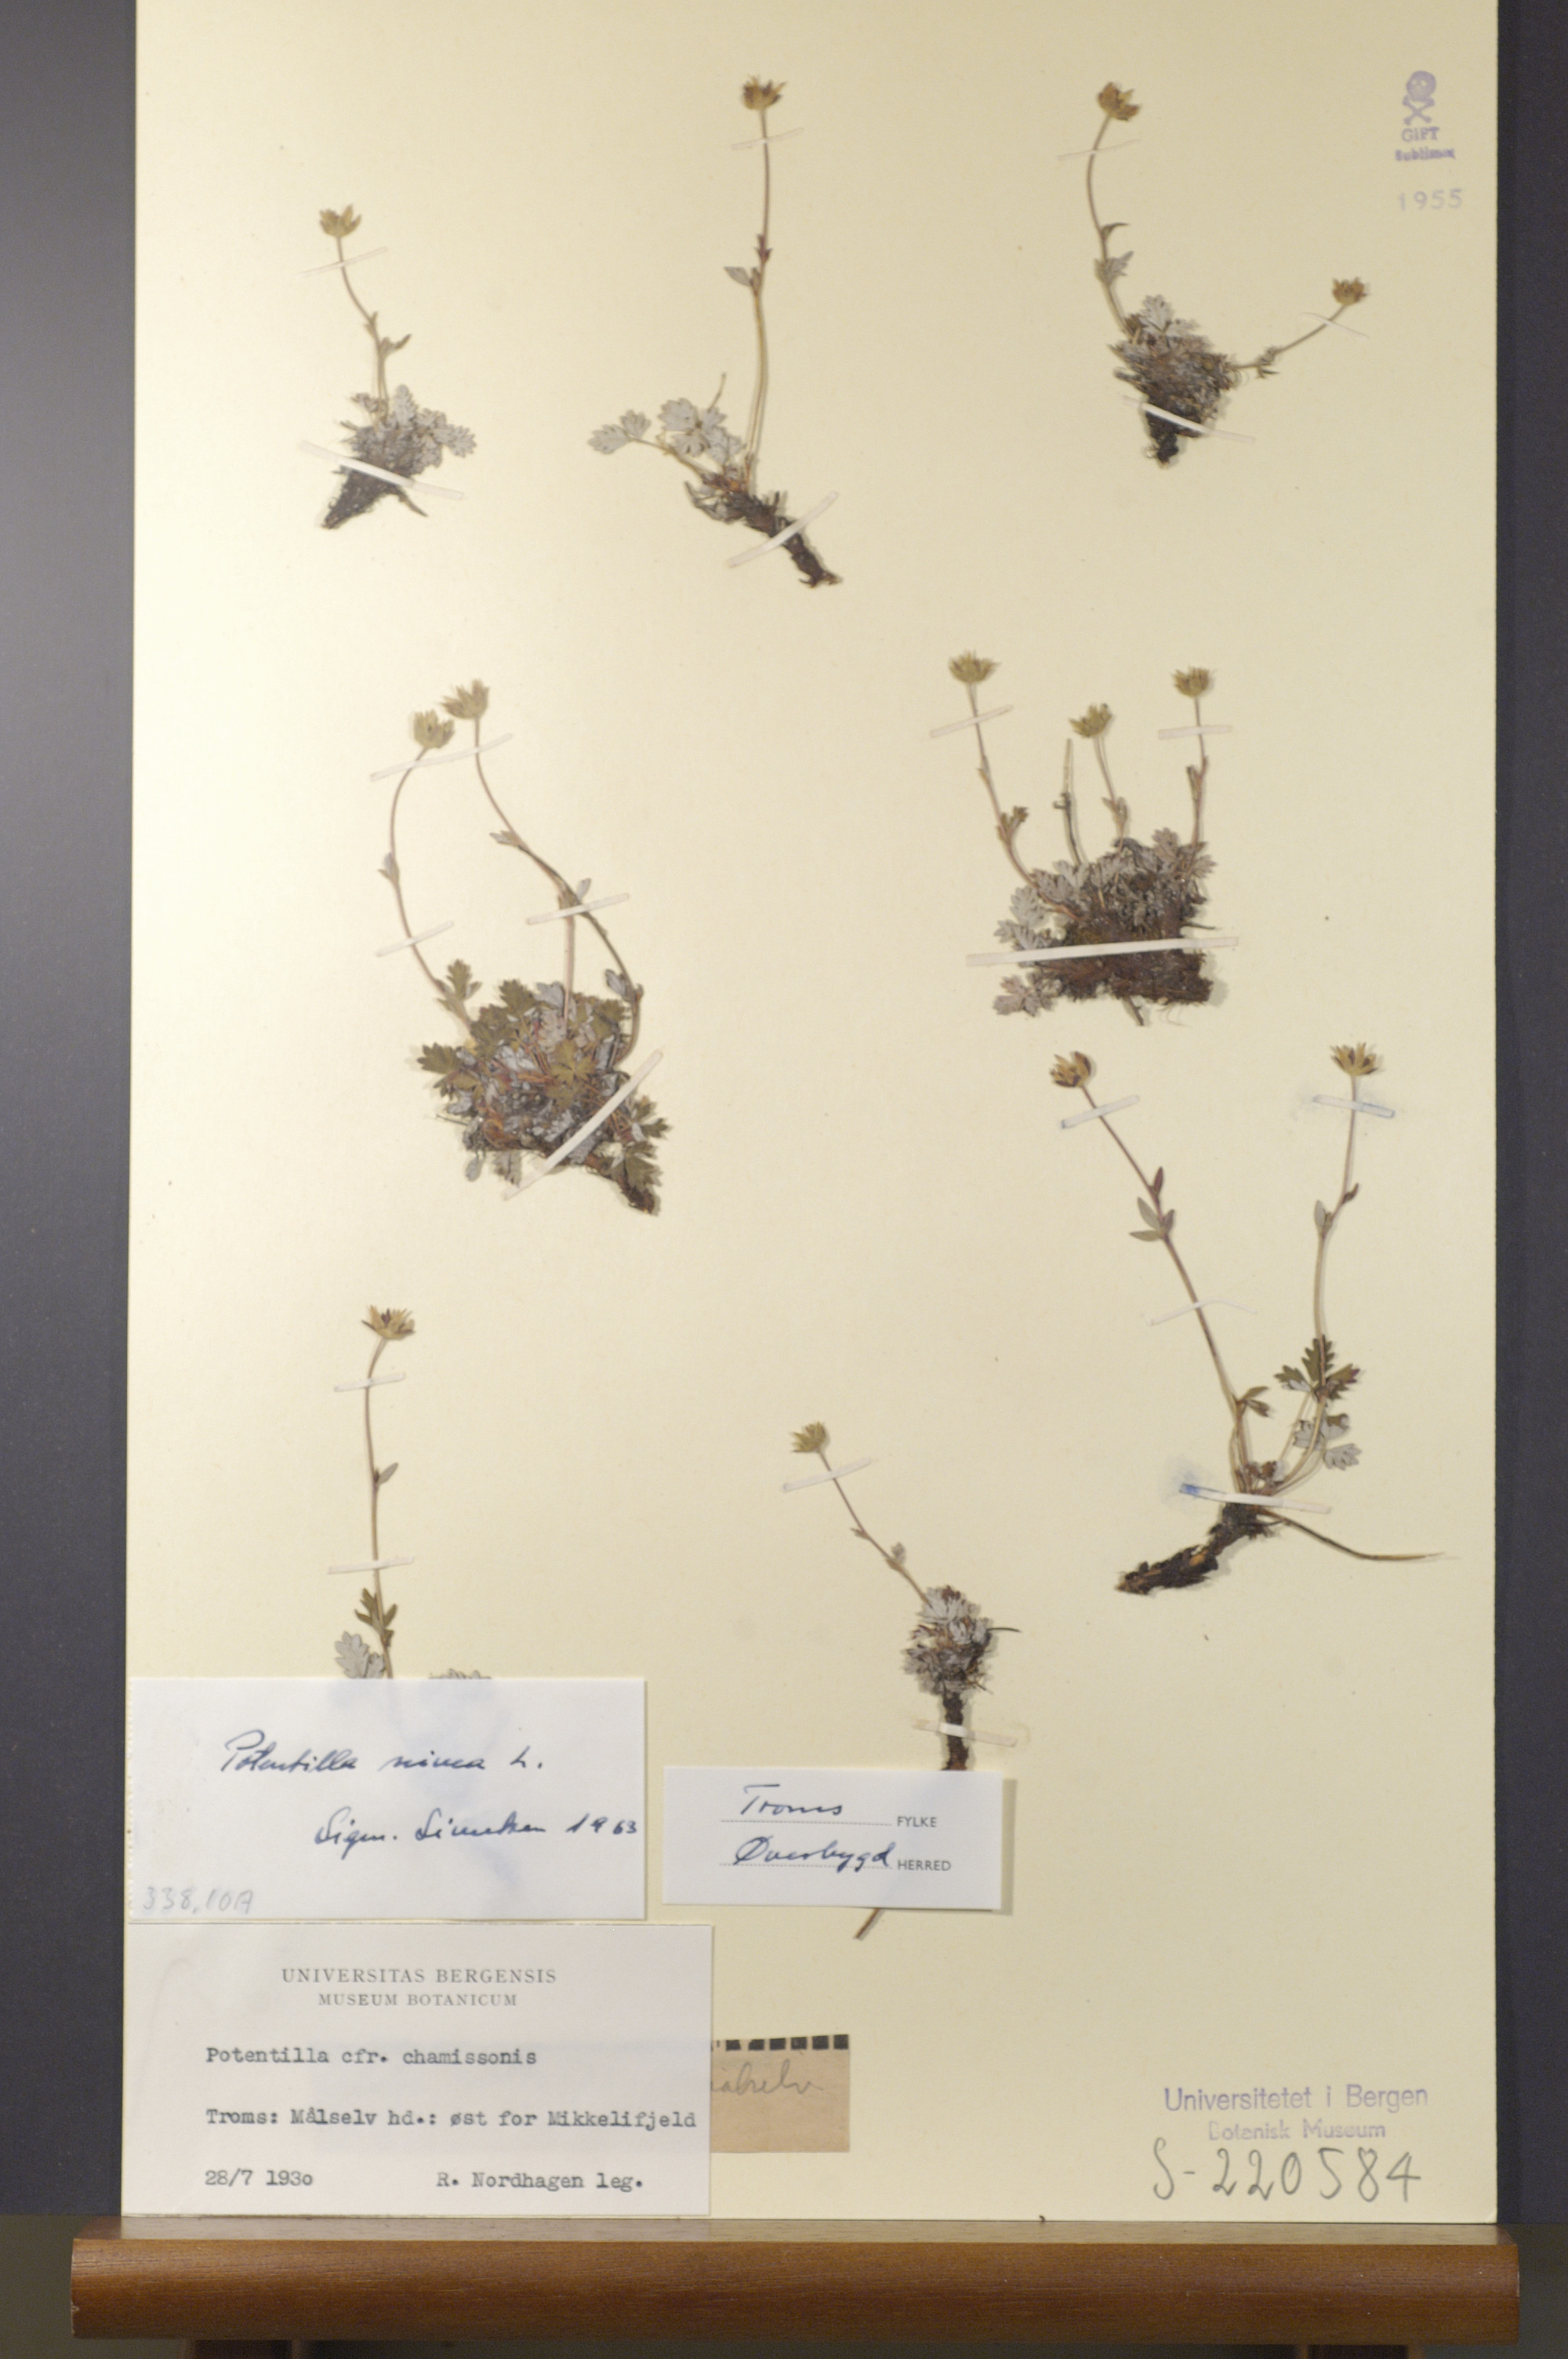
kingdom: Plantae
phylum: Tracheophyta
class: Magnoliopsida
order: Rosales
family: Rosaceae
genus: Potentilla
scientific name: Potentilla arenosa
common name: Bluff cinquefoil
